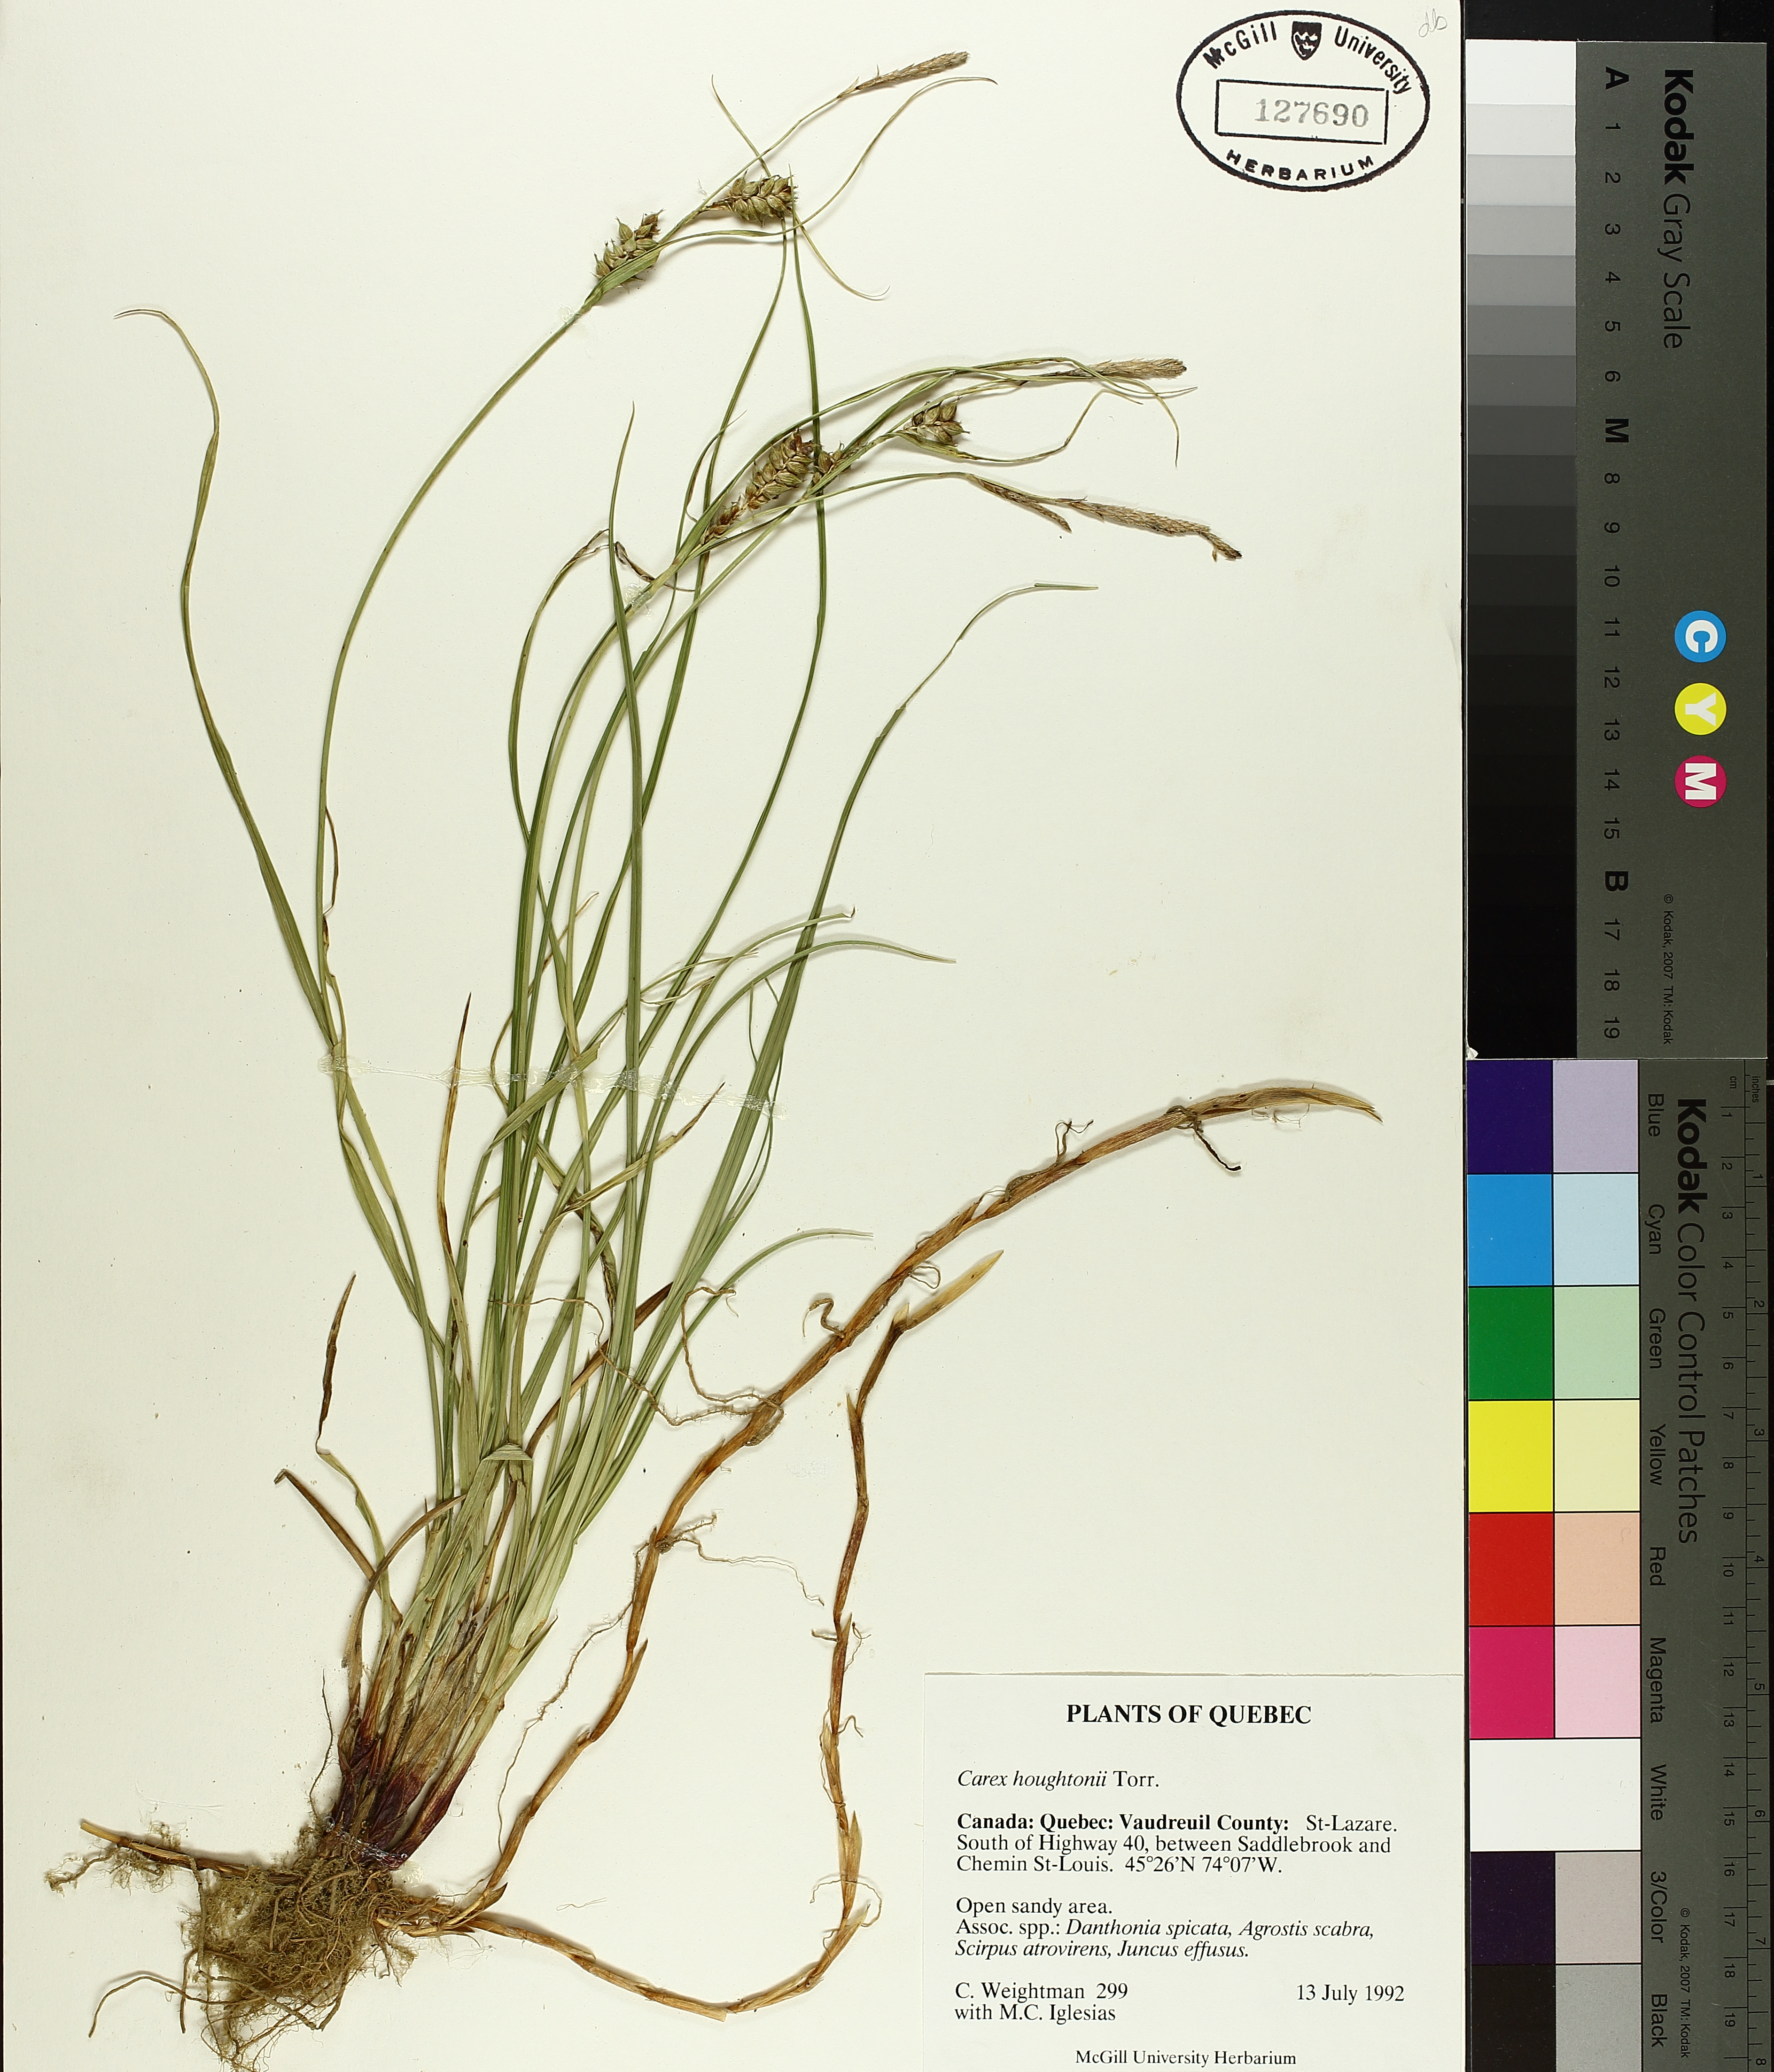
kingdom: Plantae
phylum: Tracheophyta
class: Liliopsida
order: Poales
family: Cyperaceae
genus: Carex
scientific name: Carex houghtoniana
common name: Houghton's sedge
